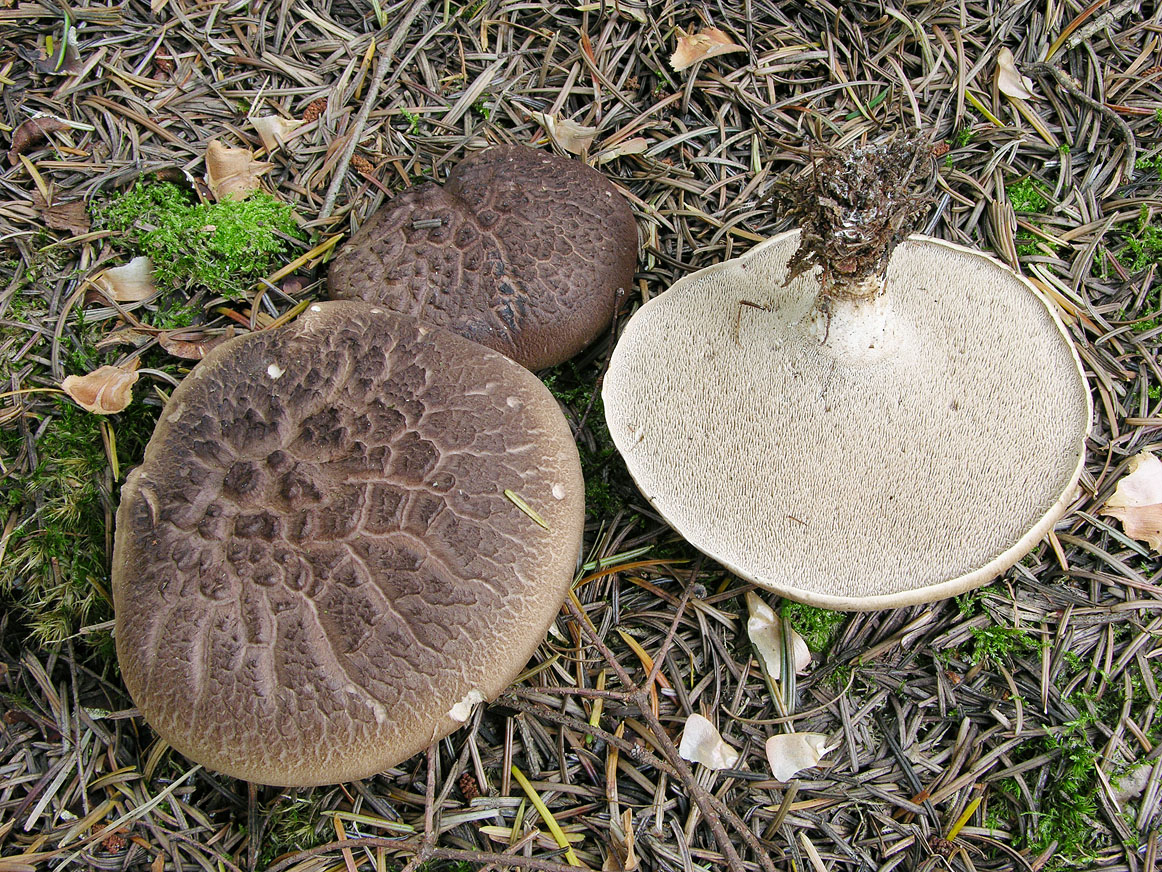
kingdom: Fungi
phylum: Basidiomycota
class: Agaricomycetes
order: Thelephorales
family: Bankeraceae
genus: Sarcodon
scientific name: Sarcodon squamosus
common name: småskællet kødpigsvamp
